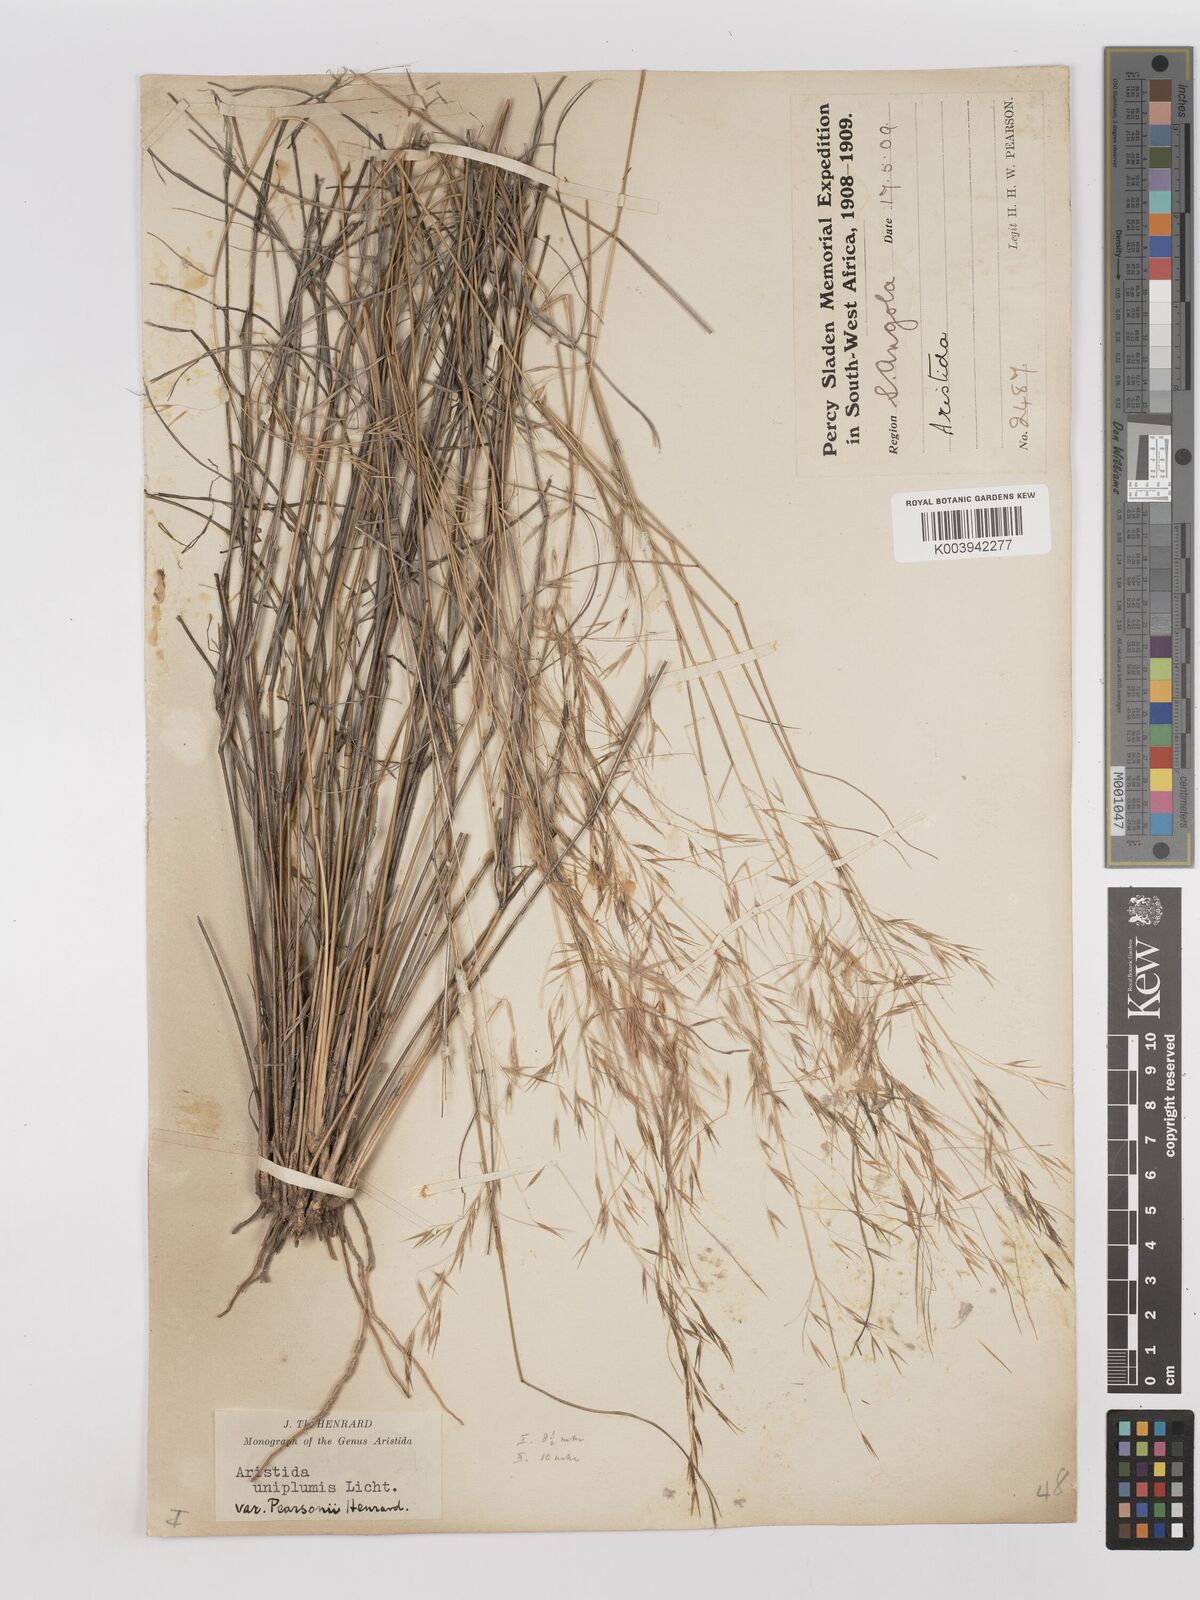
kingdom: Plantae
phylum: Tracheophyta
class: Liliopsida
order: Poales
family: Poaceae
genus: Stipagrostis
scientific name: Stipagrostis uniplumis
